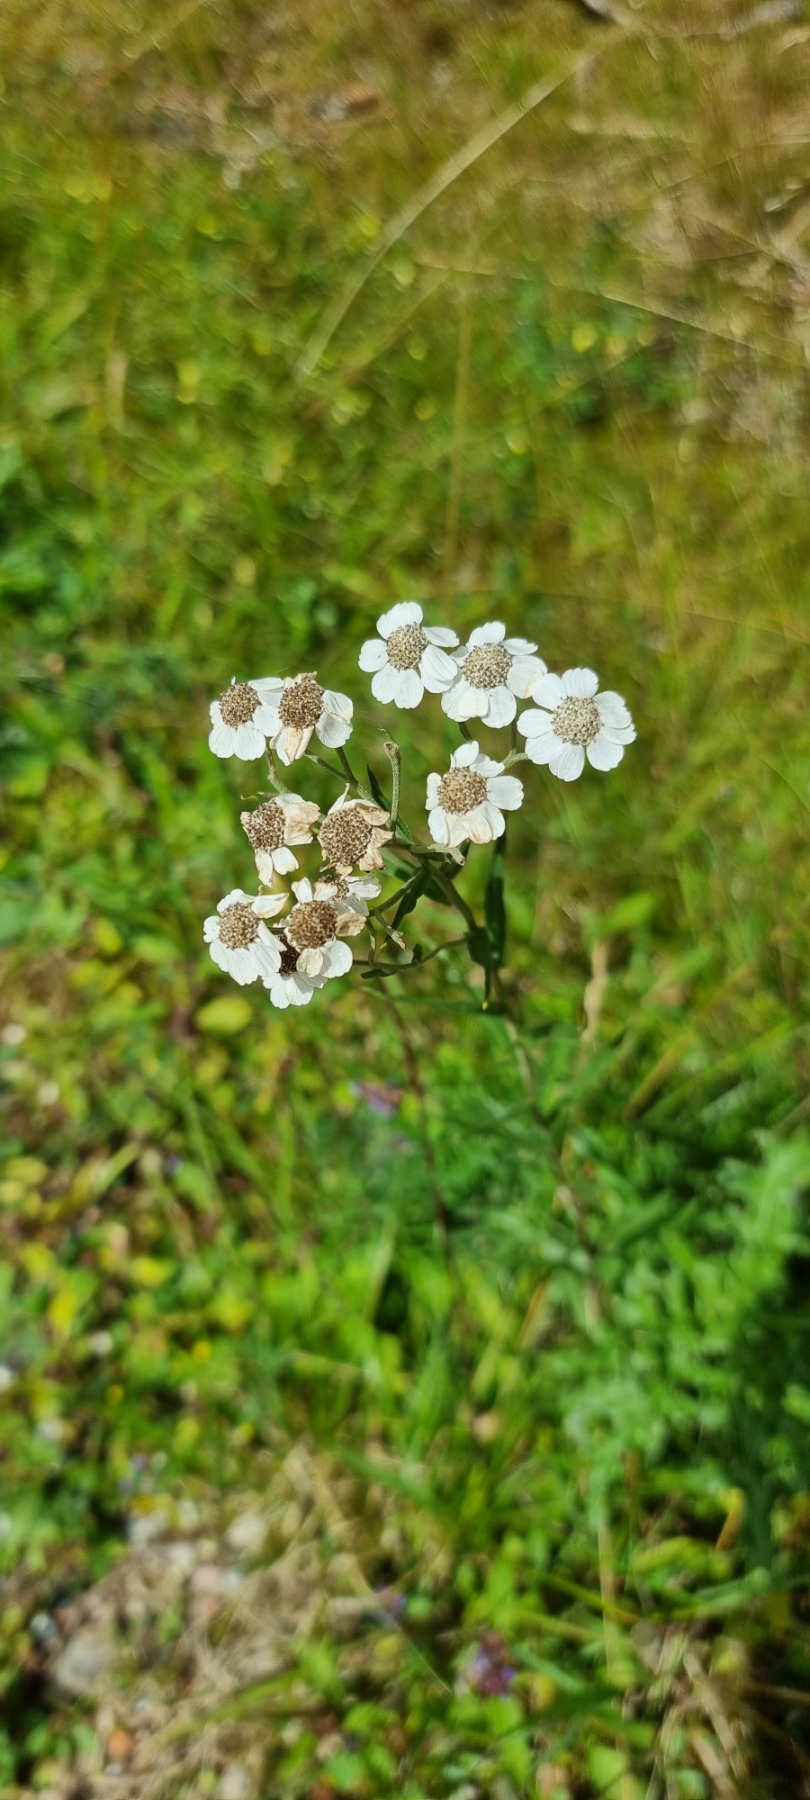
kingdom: Plantae
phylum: Tracheophyta
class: Magnoliopsida
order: Asterales
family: Asteraceae
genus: Achillea
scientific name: Achillea ptarmica
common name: Nyse-røllike
